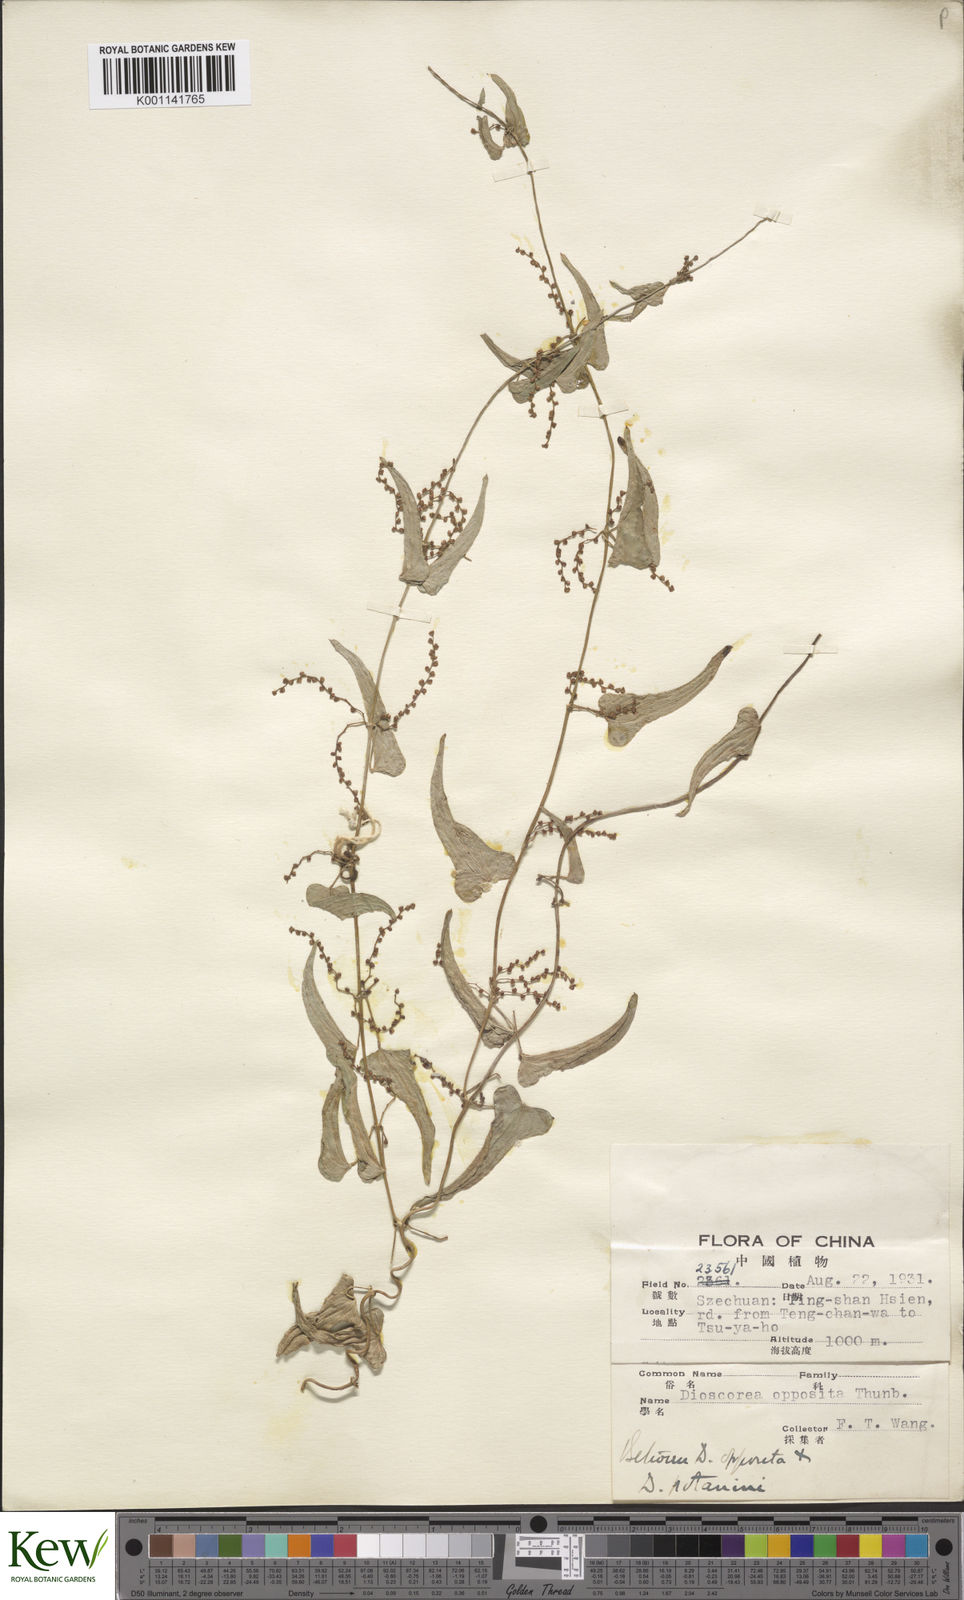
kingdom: Plantae
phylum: Tracheophyta
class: Liliopsida
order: Dioscoreales
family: Dioscoreaceae
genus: Dioscorea
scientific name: Dioscorea oppositifolia
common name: Chinese yam
